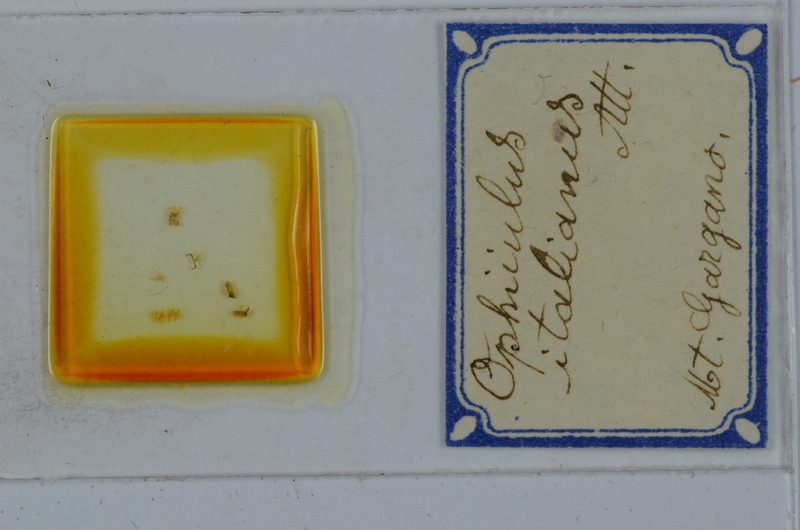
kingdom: Animalia
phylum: Arthropoda
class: Diplopoda
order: Julida
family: Julidae
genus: Ophyiulus
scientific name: Ophyiulus italianus
